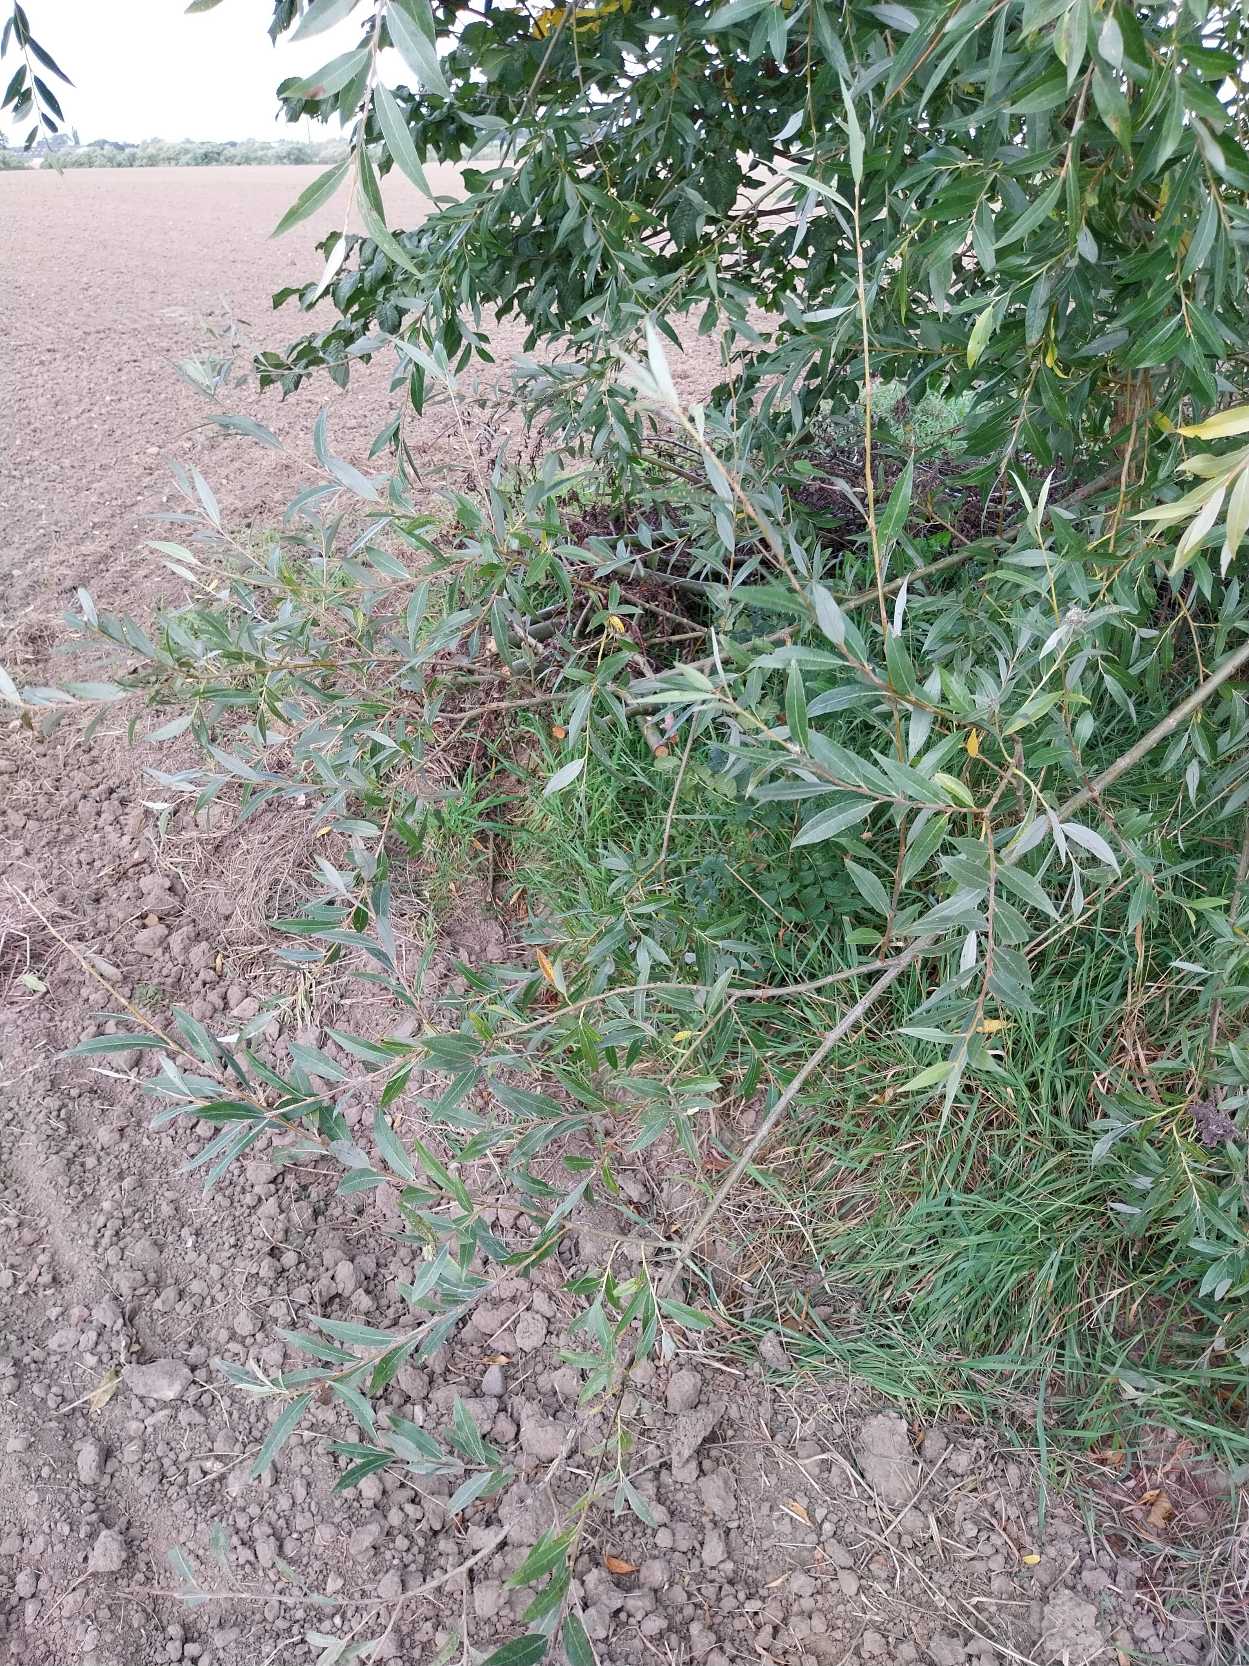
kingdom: Plantae
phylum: Tracheophyta
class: Magnoliopsida
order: Malpighiales
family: Salicaceae
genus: Salix
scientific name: Salix alba
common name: Hvid-pil
